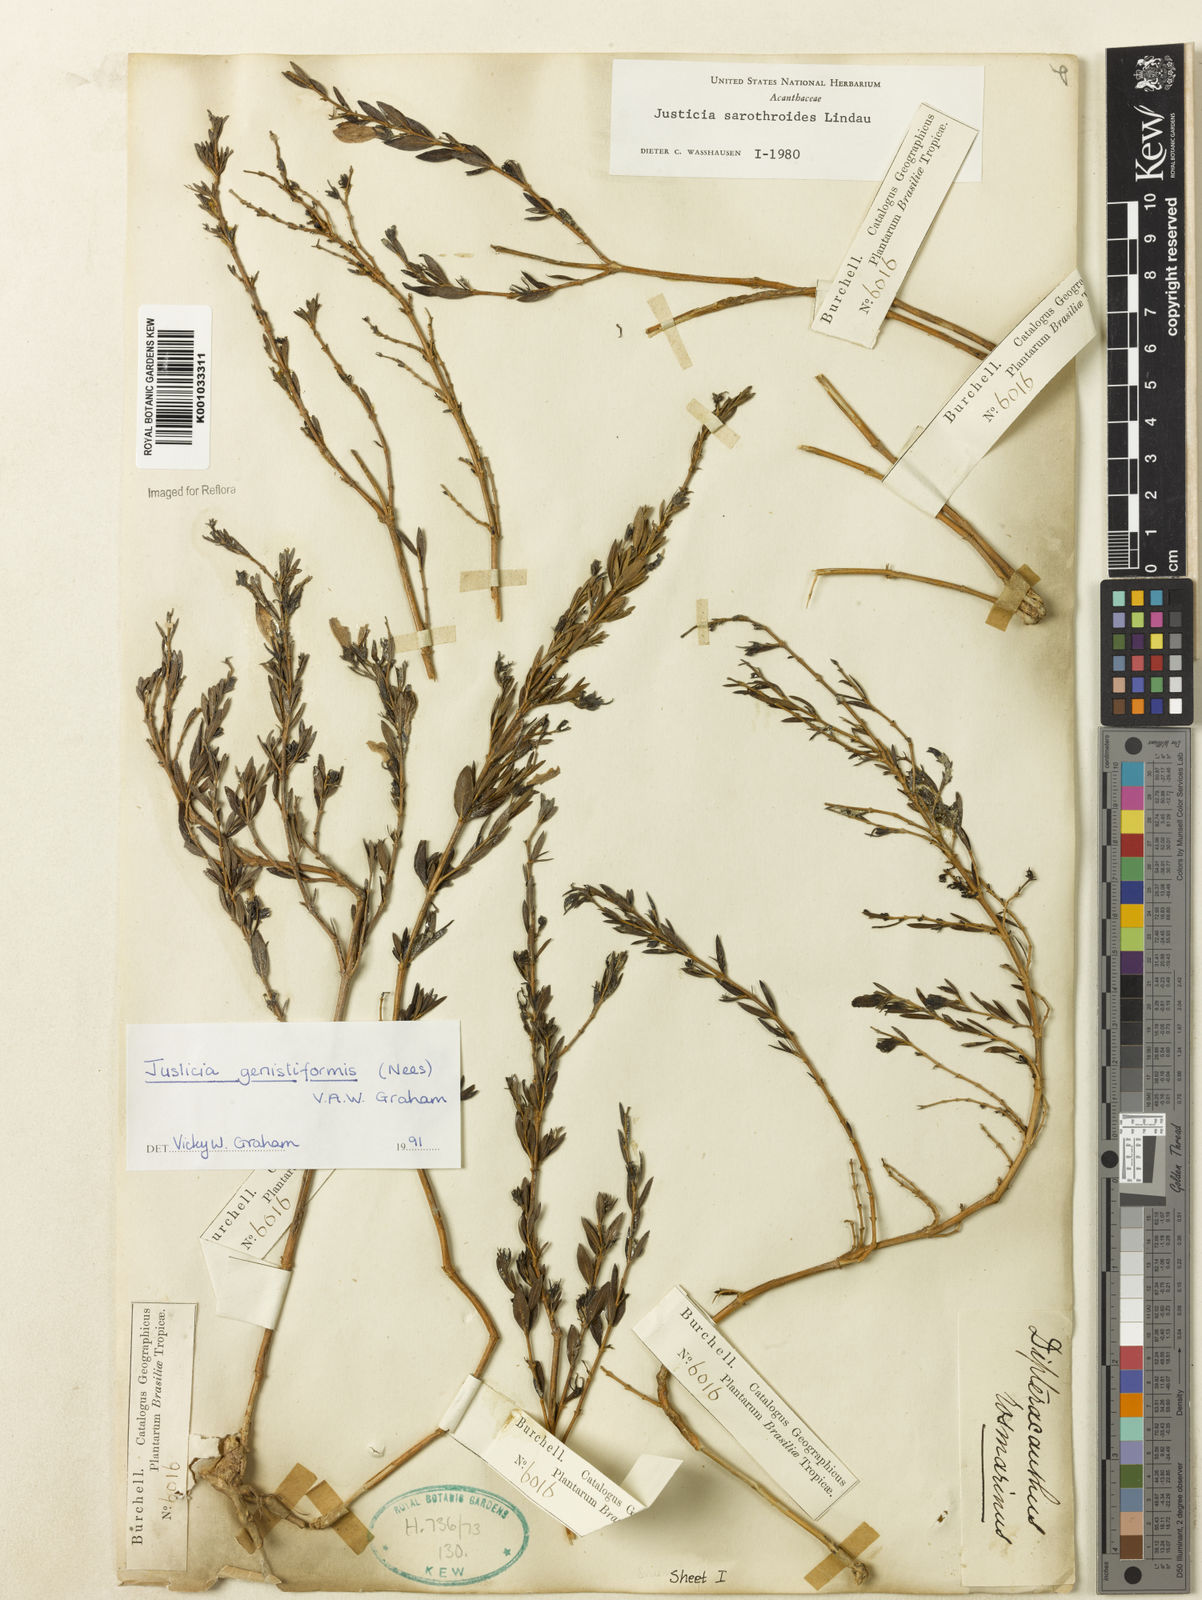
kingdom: Plantae
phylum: Tracheophyta
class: Magnoliopsida
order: Lamiales
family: Acanthaceae
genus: Justicia
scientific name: Justicia
